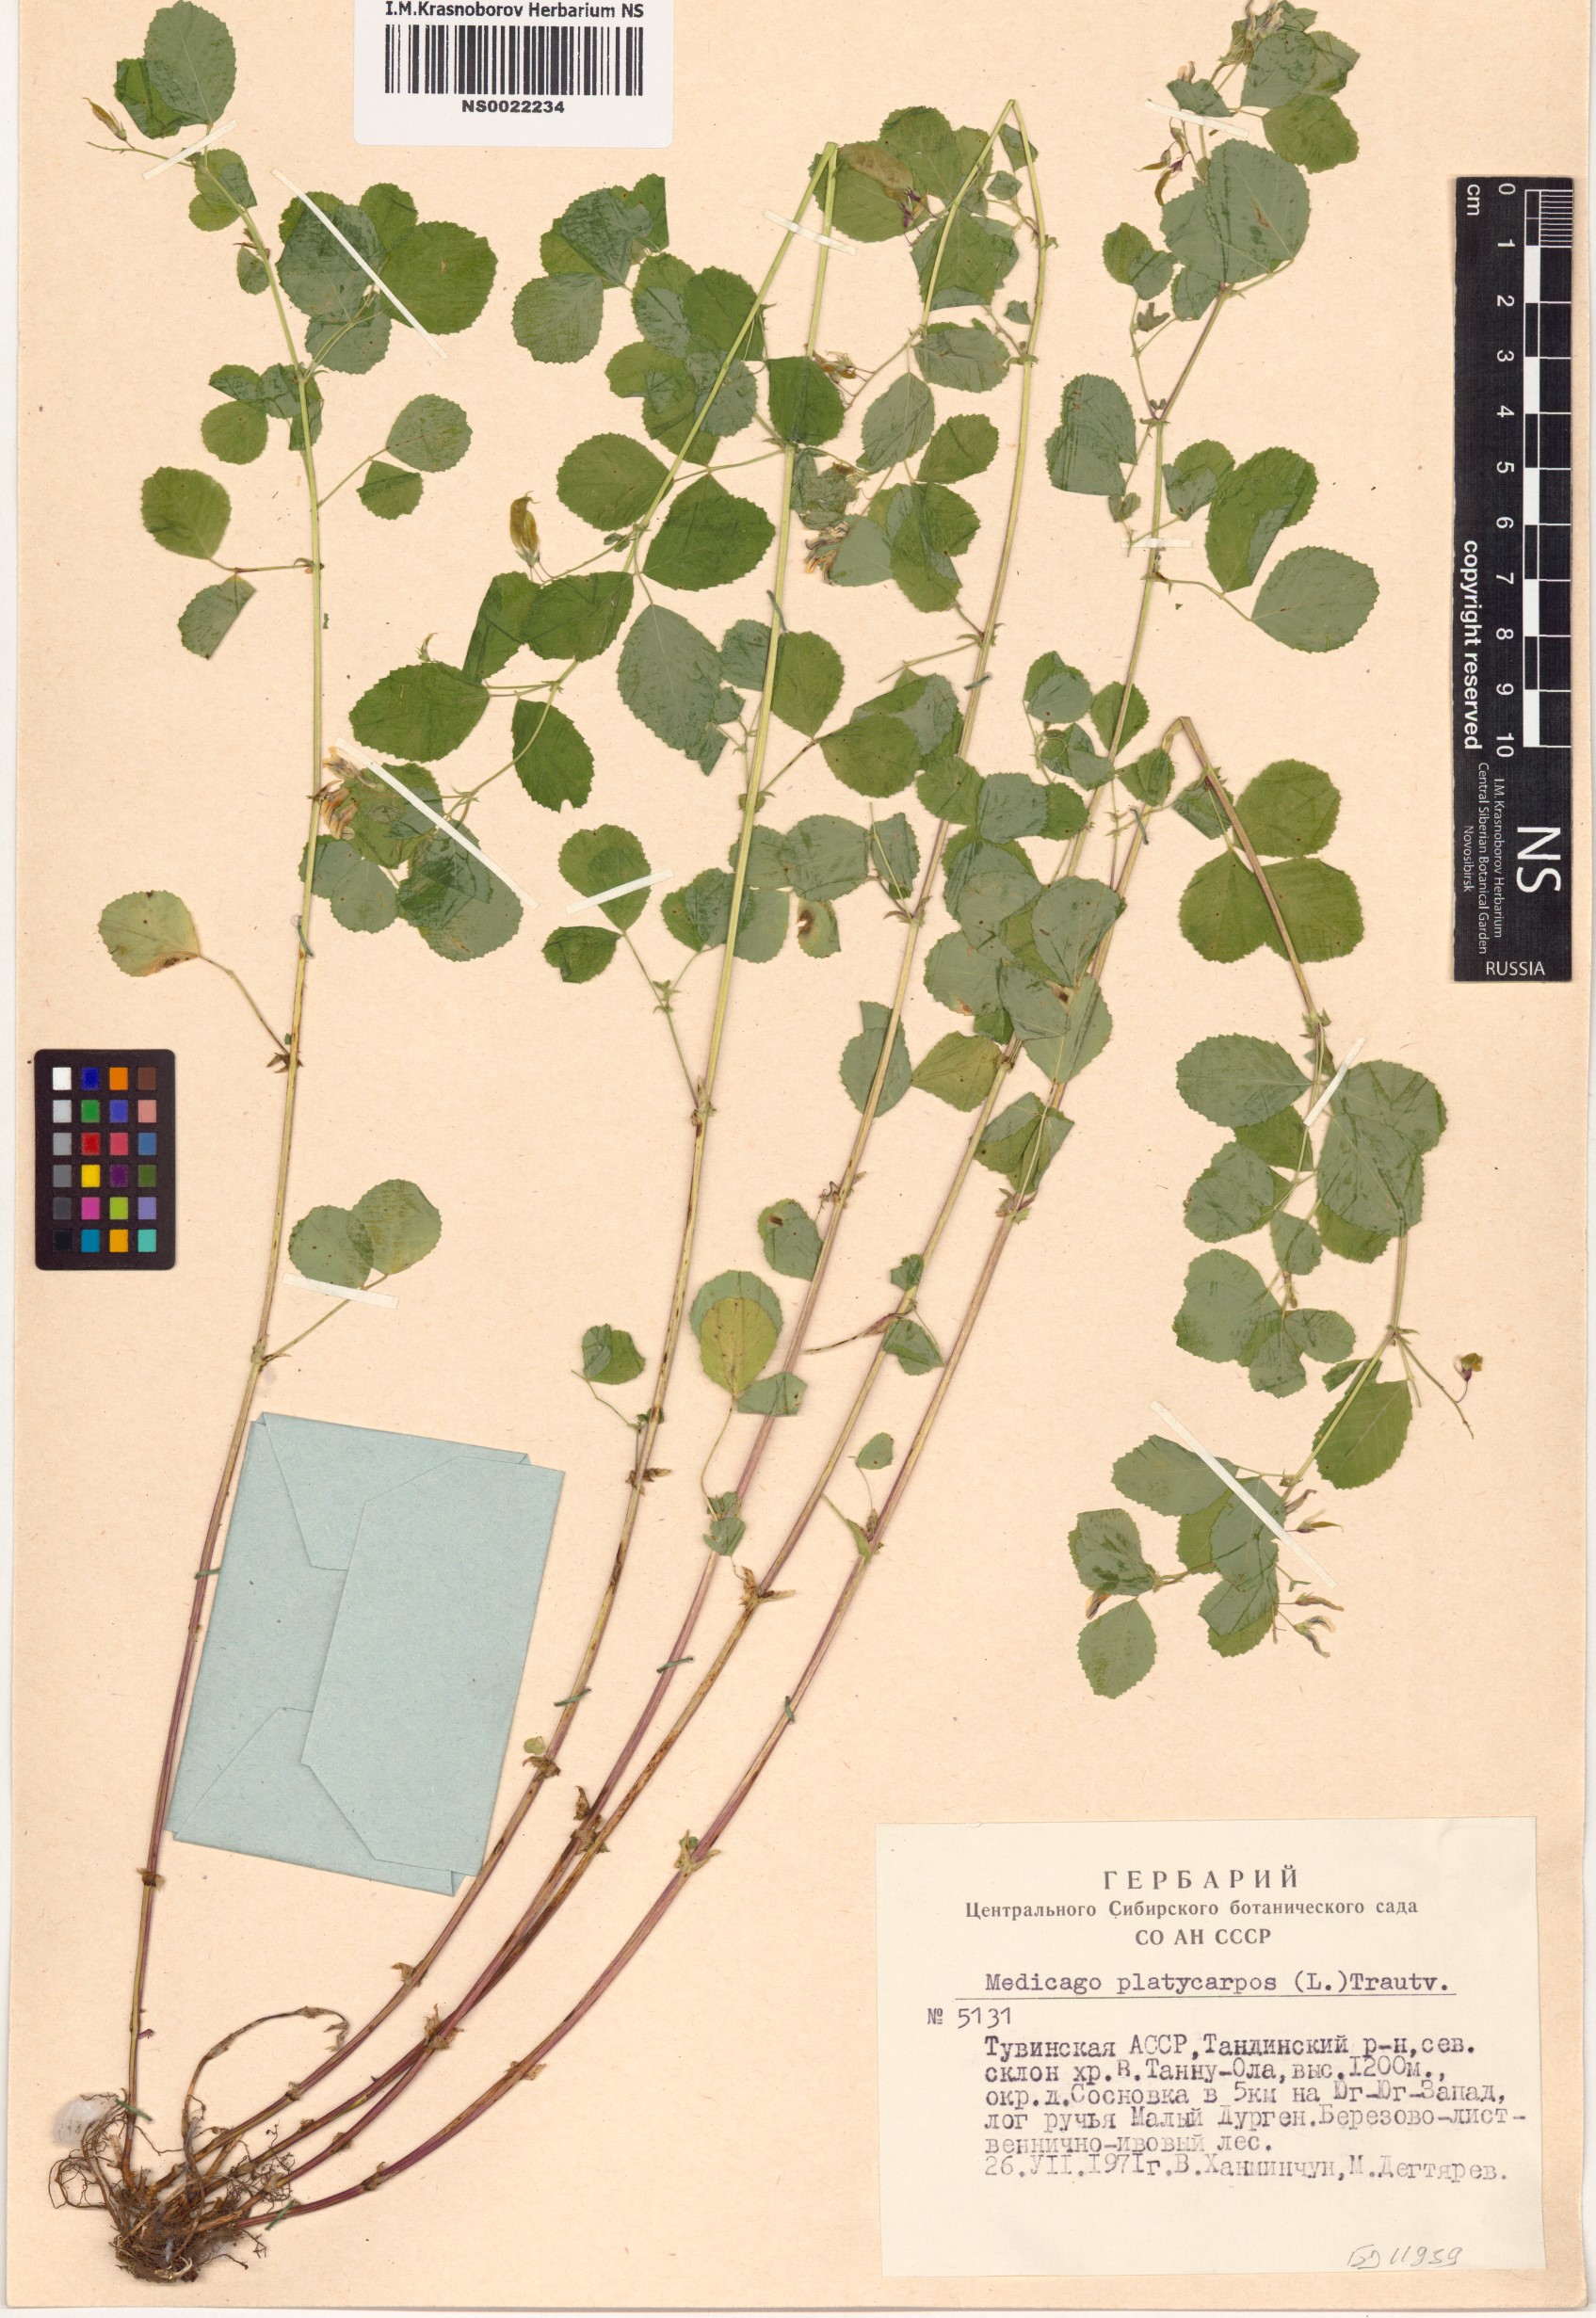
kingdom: Plantae
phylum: Tracheophyta
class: Magnoliopsida
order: Fabales
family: Fabaceae
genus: Medicago
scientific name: Medicago platycarpos
